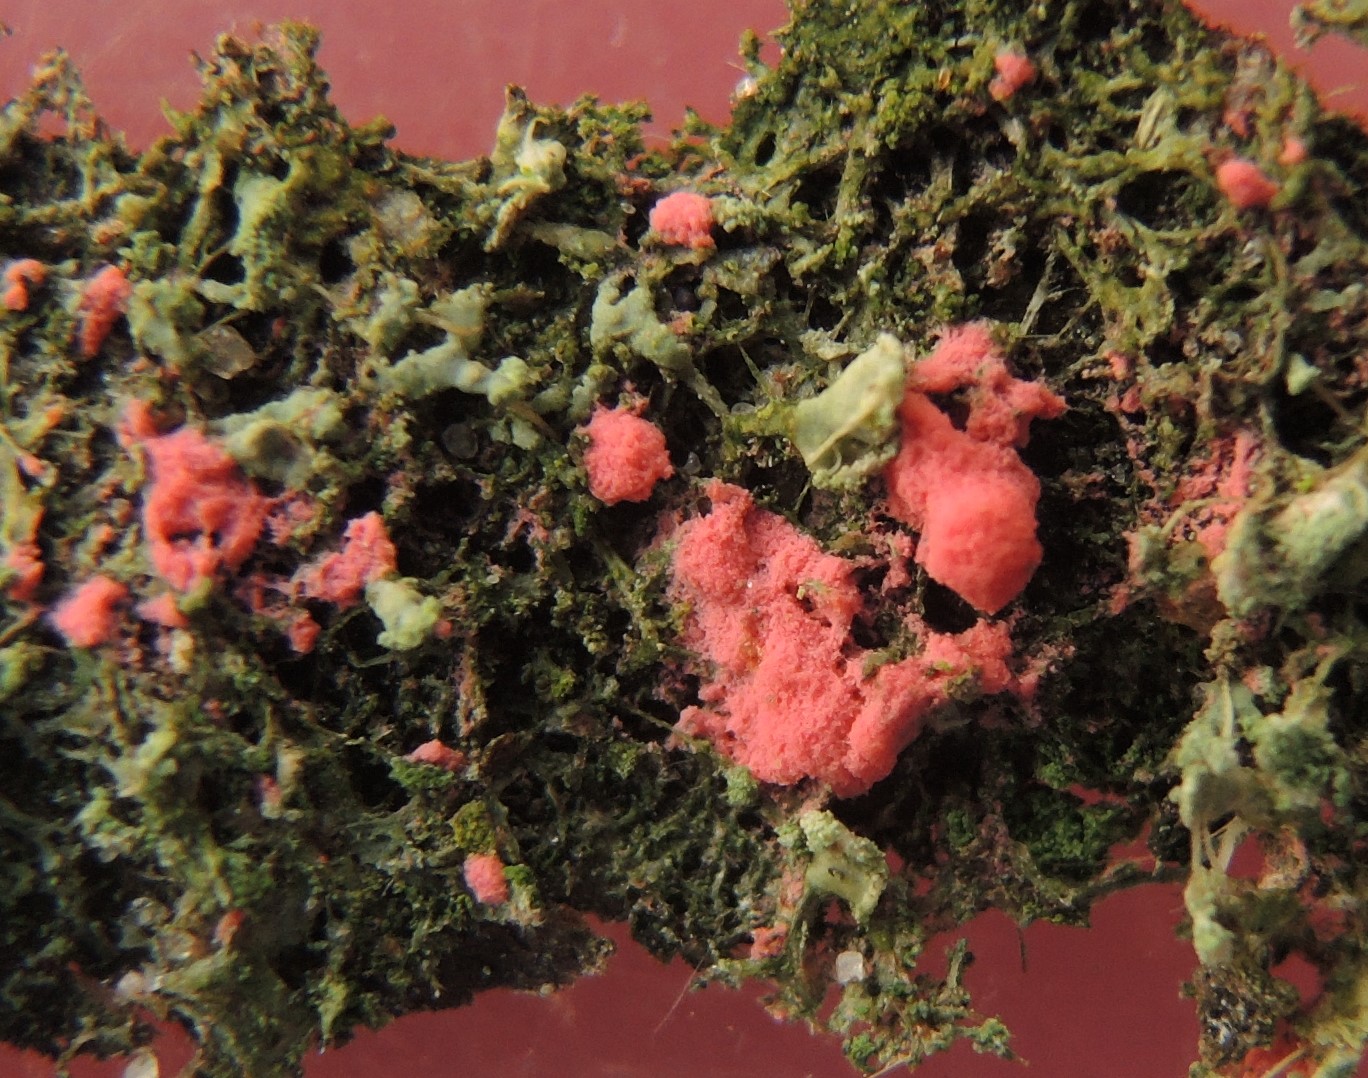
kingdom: Fungi
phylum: Ascomycota
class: Sordariomycetes
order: Hypocreales
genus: Illosporiopsis
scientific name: Illosporiopsis christiansenii
